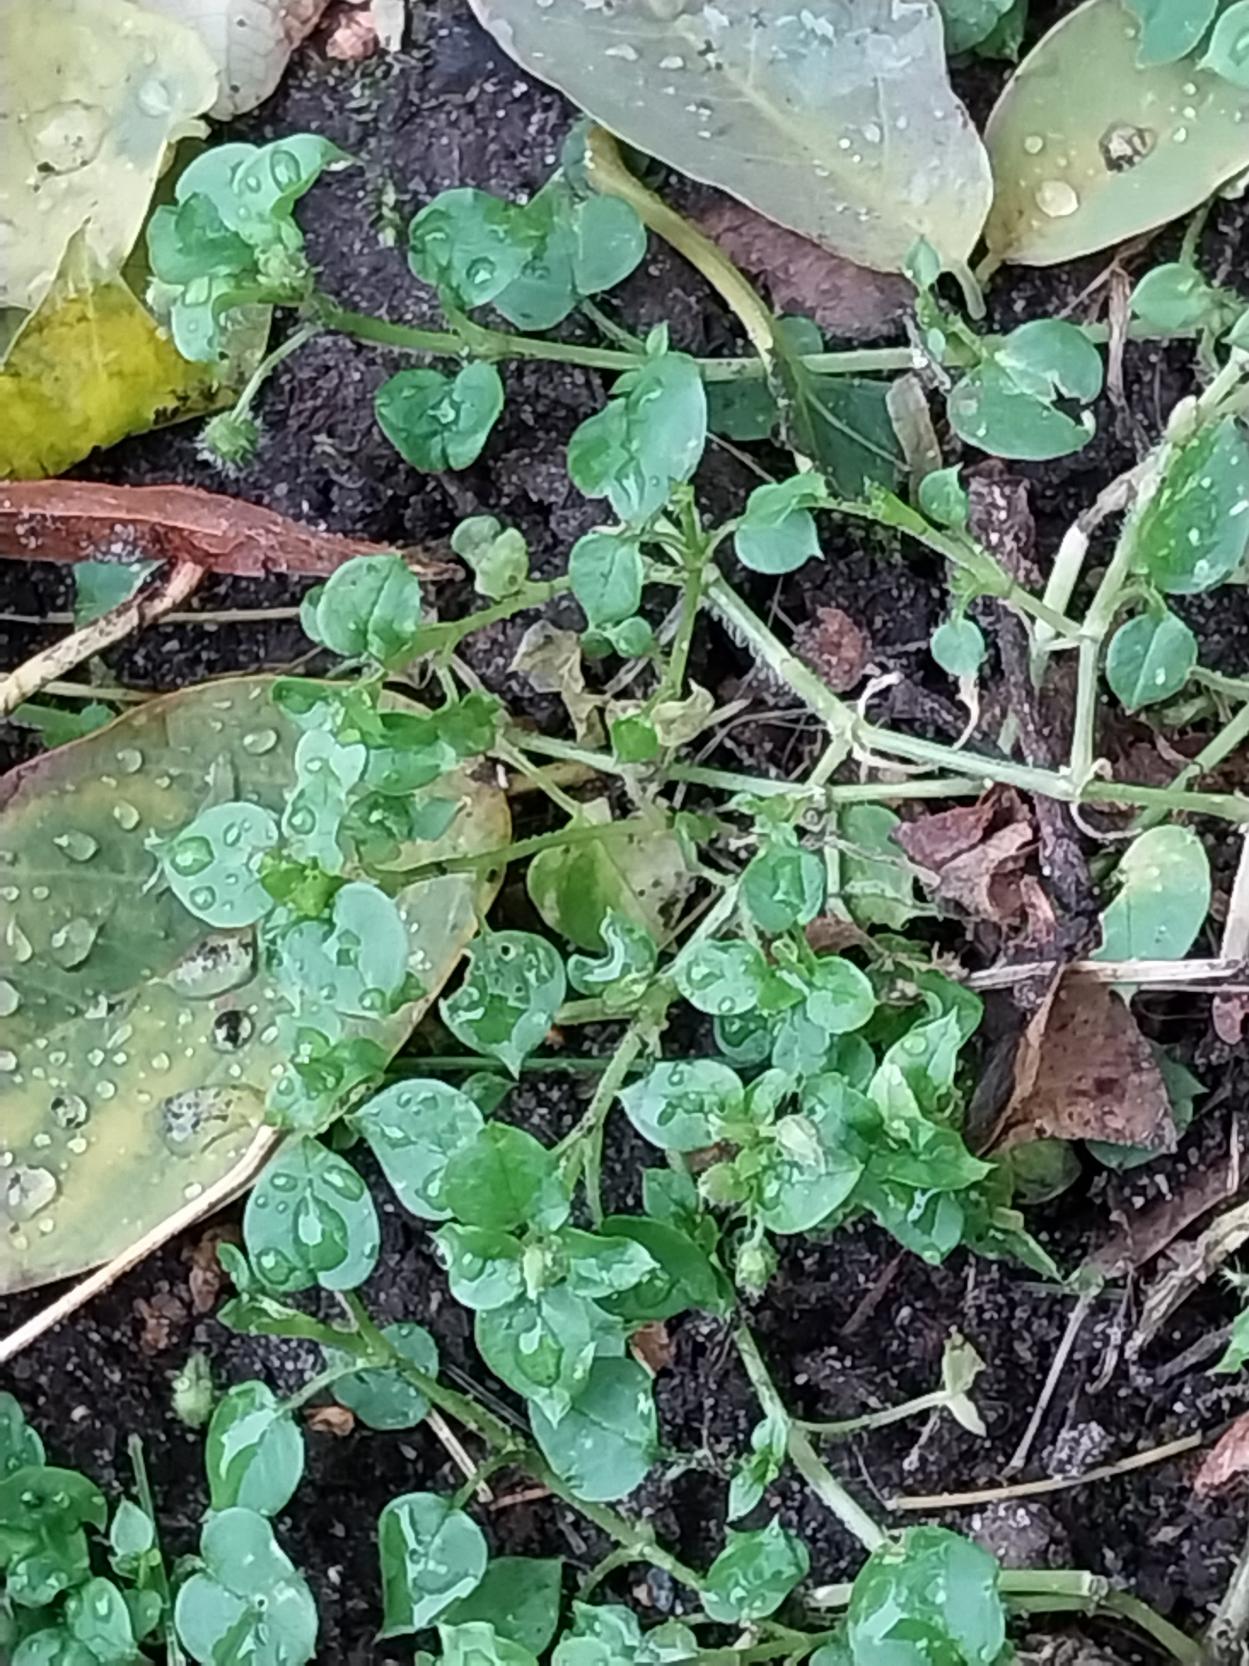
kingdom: Plantae
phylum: Tracheophyta
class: Magnoliopsida
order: Caryophyllales
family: Caryophyllaceae
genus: Stellaria
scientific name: Stellaria media
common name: Almindelig fuglegræs
